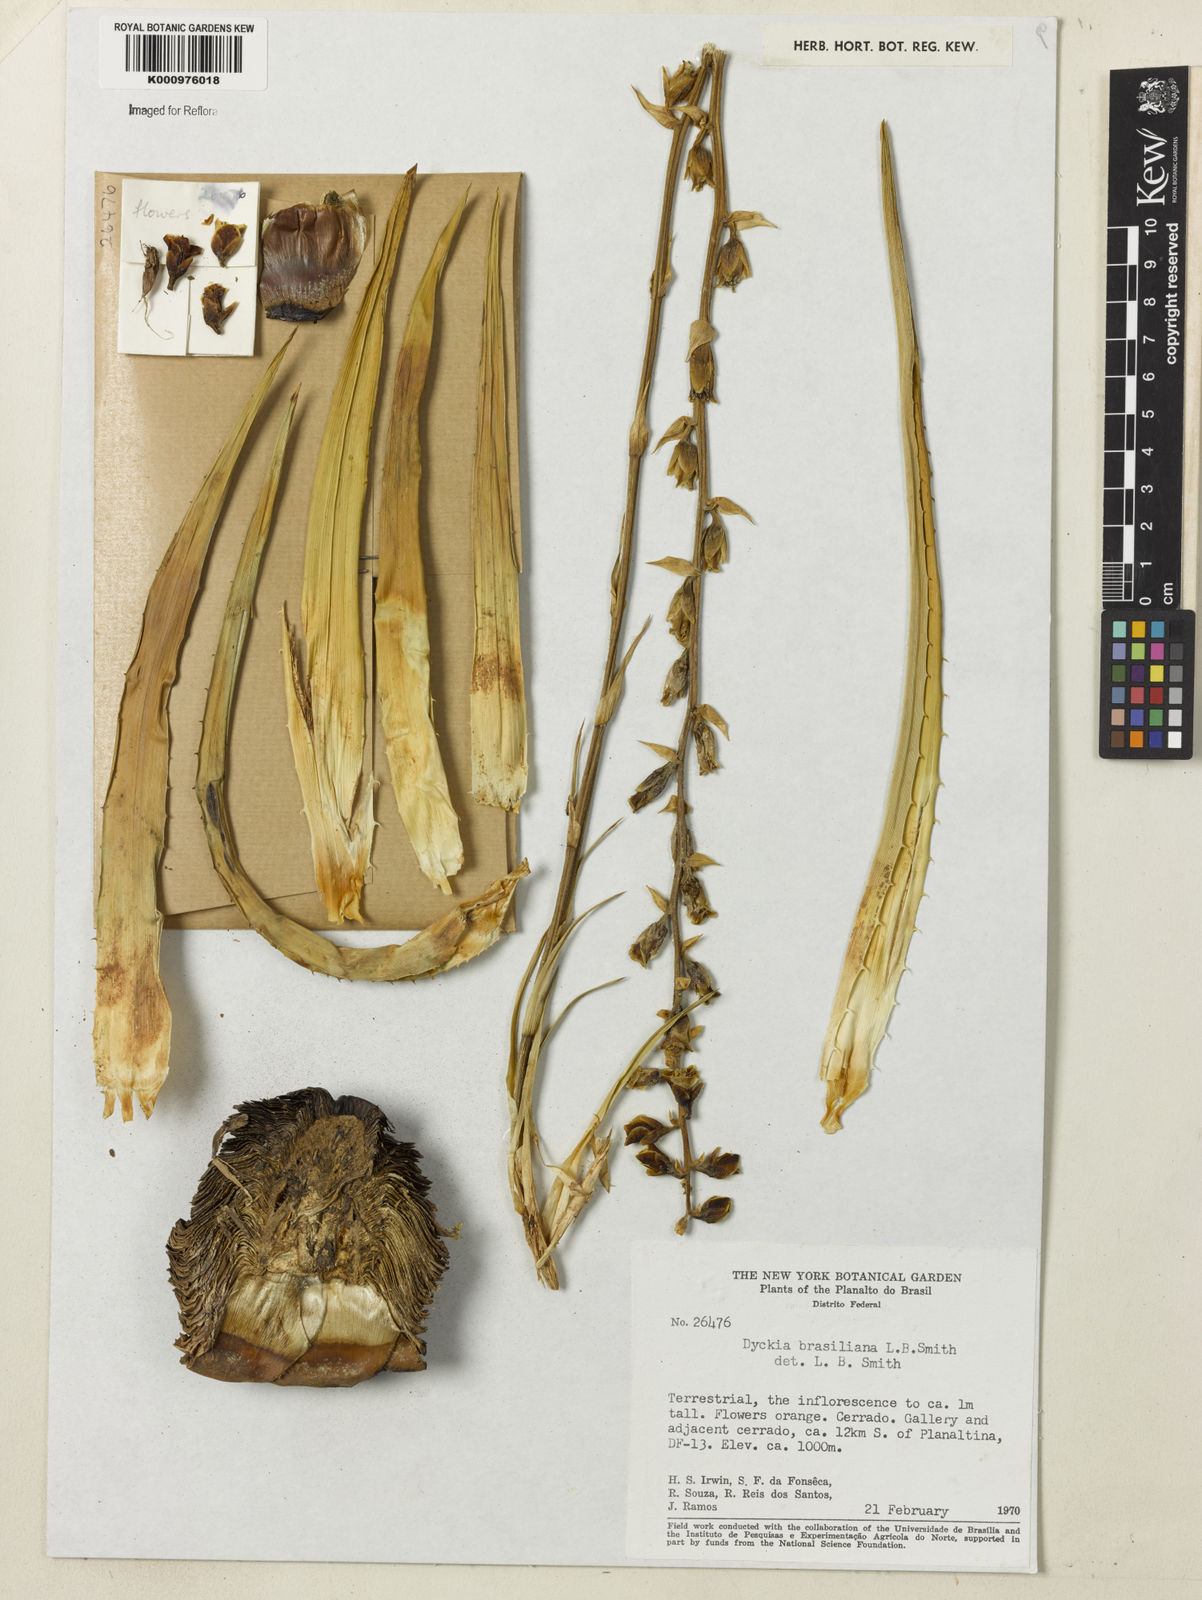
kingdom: Plantae
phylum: Tracheophyta
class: Liliopsida
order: Poales
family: Bromeliaceae
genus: Dyckia
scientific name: Dyckia brasiliana
